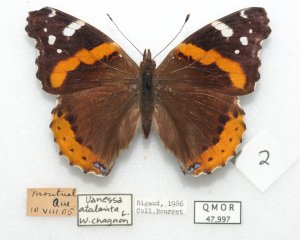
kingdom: Animalia
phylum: Arthropoda
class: Insecta
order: Lepidoptera
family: Nymphalidae
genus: Vanessa
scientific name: Vanessa atalanta
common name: Red Admiral
